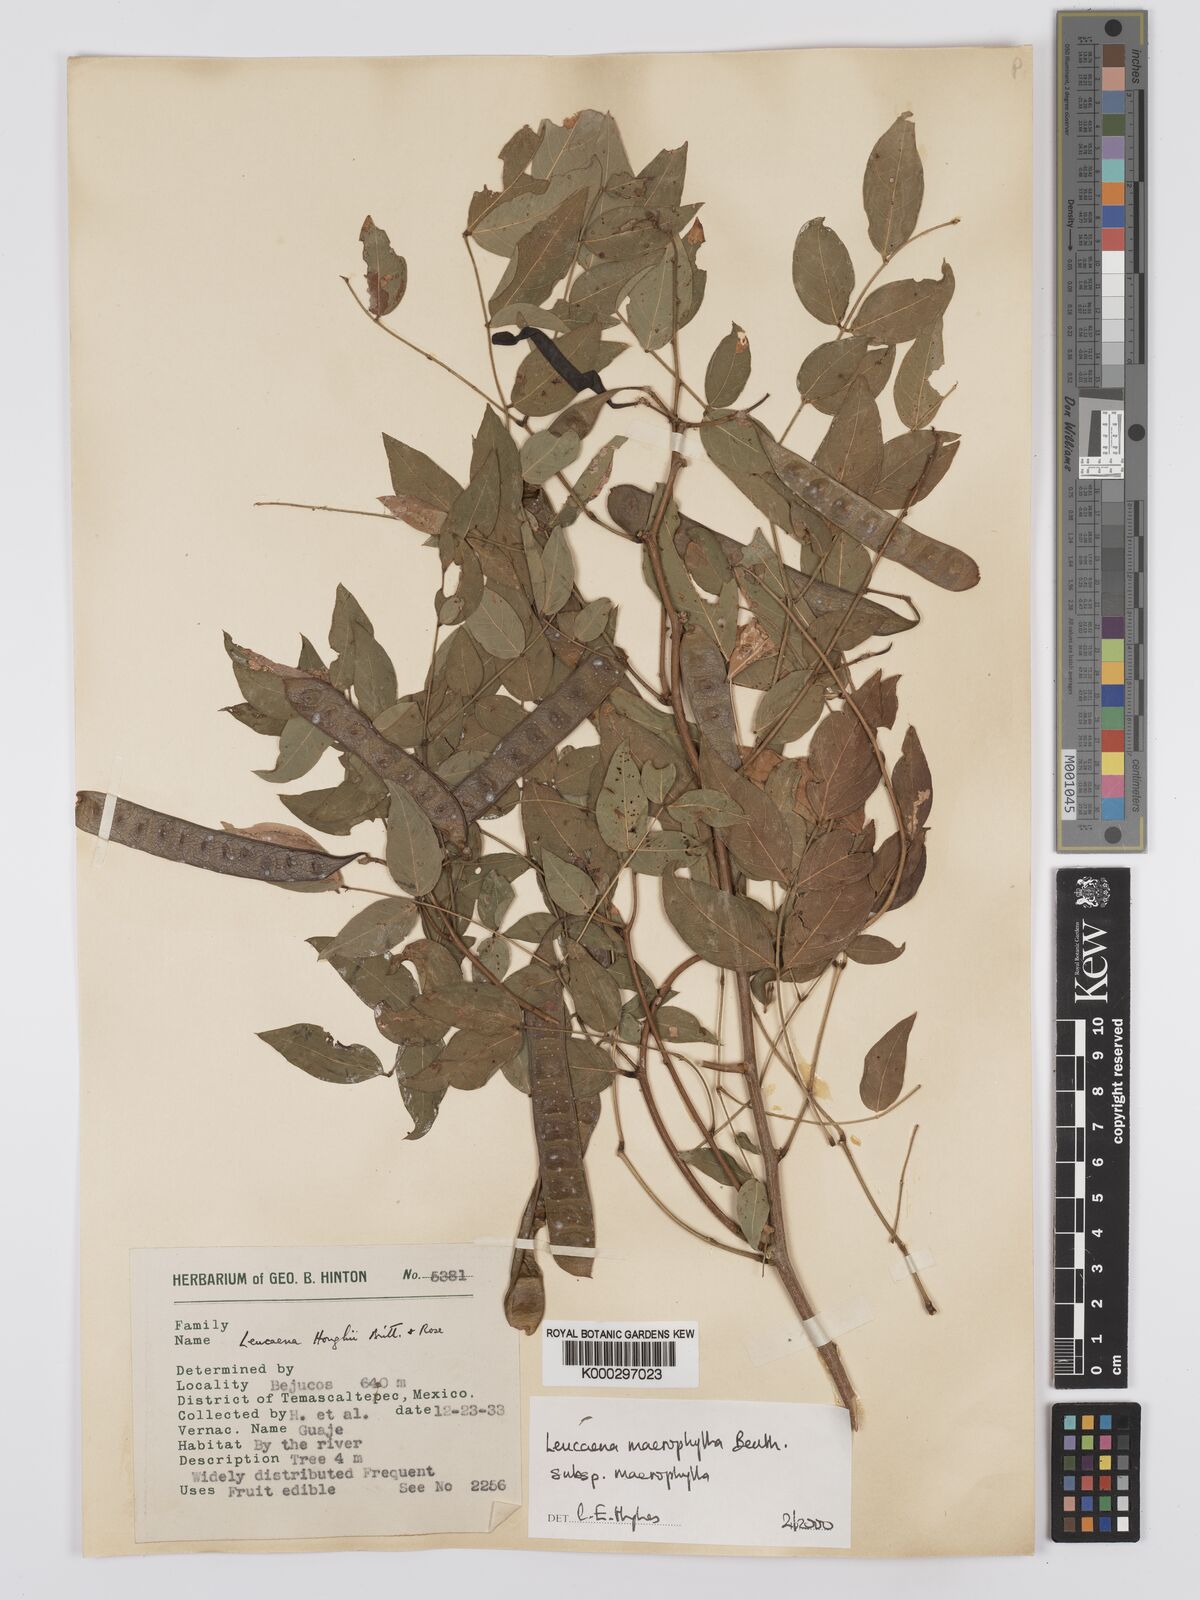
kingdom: Plantae
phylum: Tracheophyta
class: Magnoliopsida
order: Fabales
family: Fabaceae
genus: Leucaena
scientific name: Leucaena macrophylla
